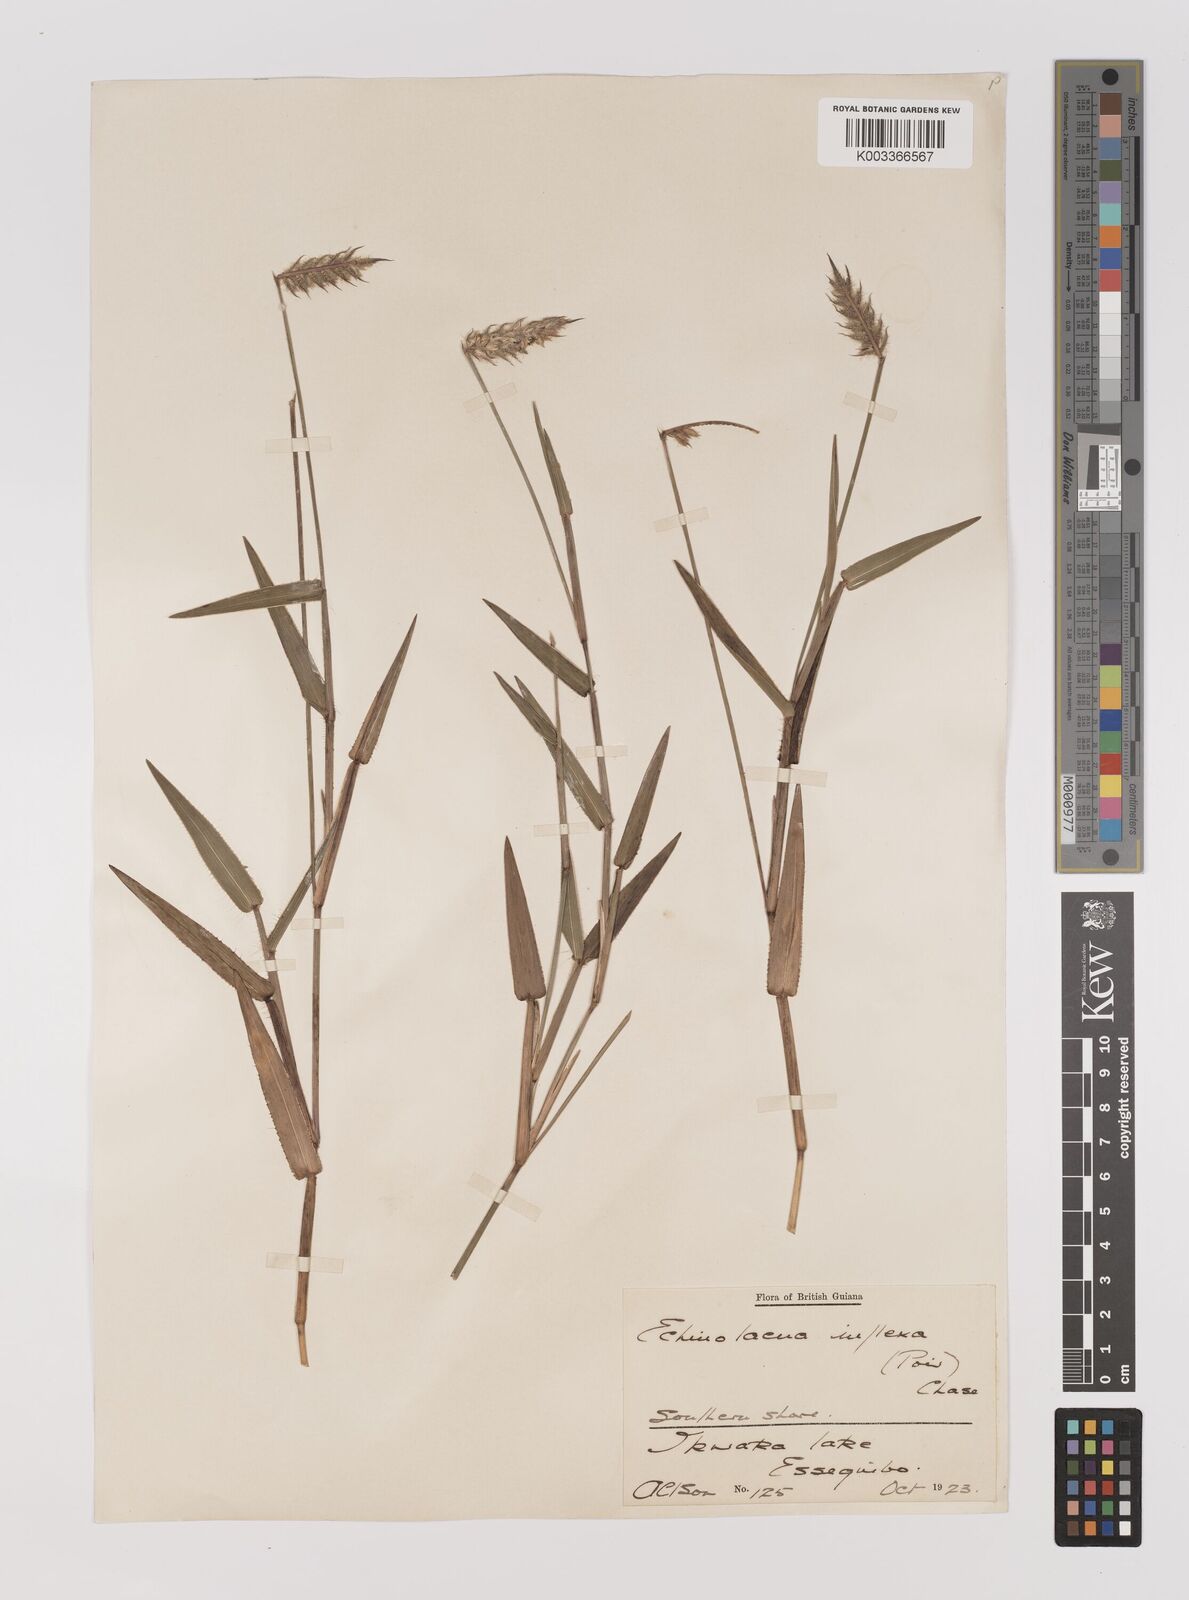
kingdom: Plantae
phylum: Tracheophyta
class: Liliopsida
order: Poales
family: Poaceae
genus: Echinolaena
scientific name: Echinolaena inflexa
